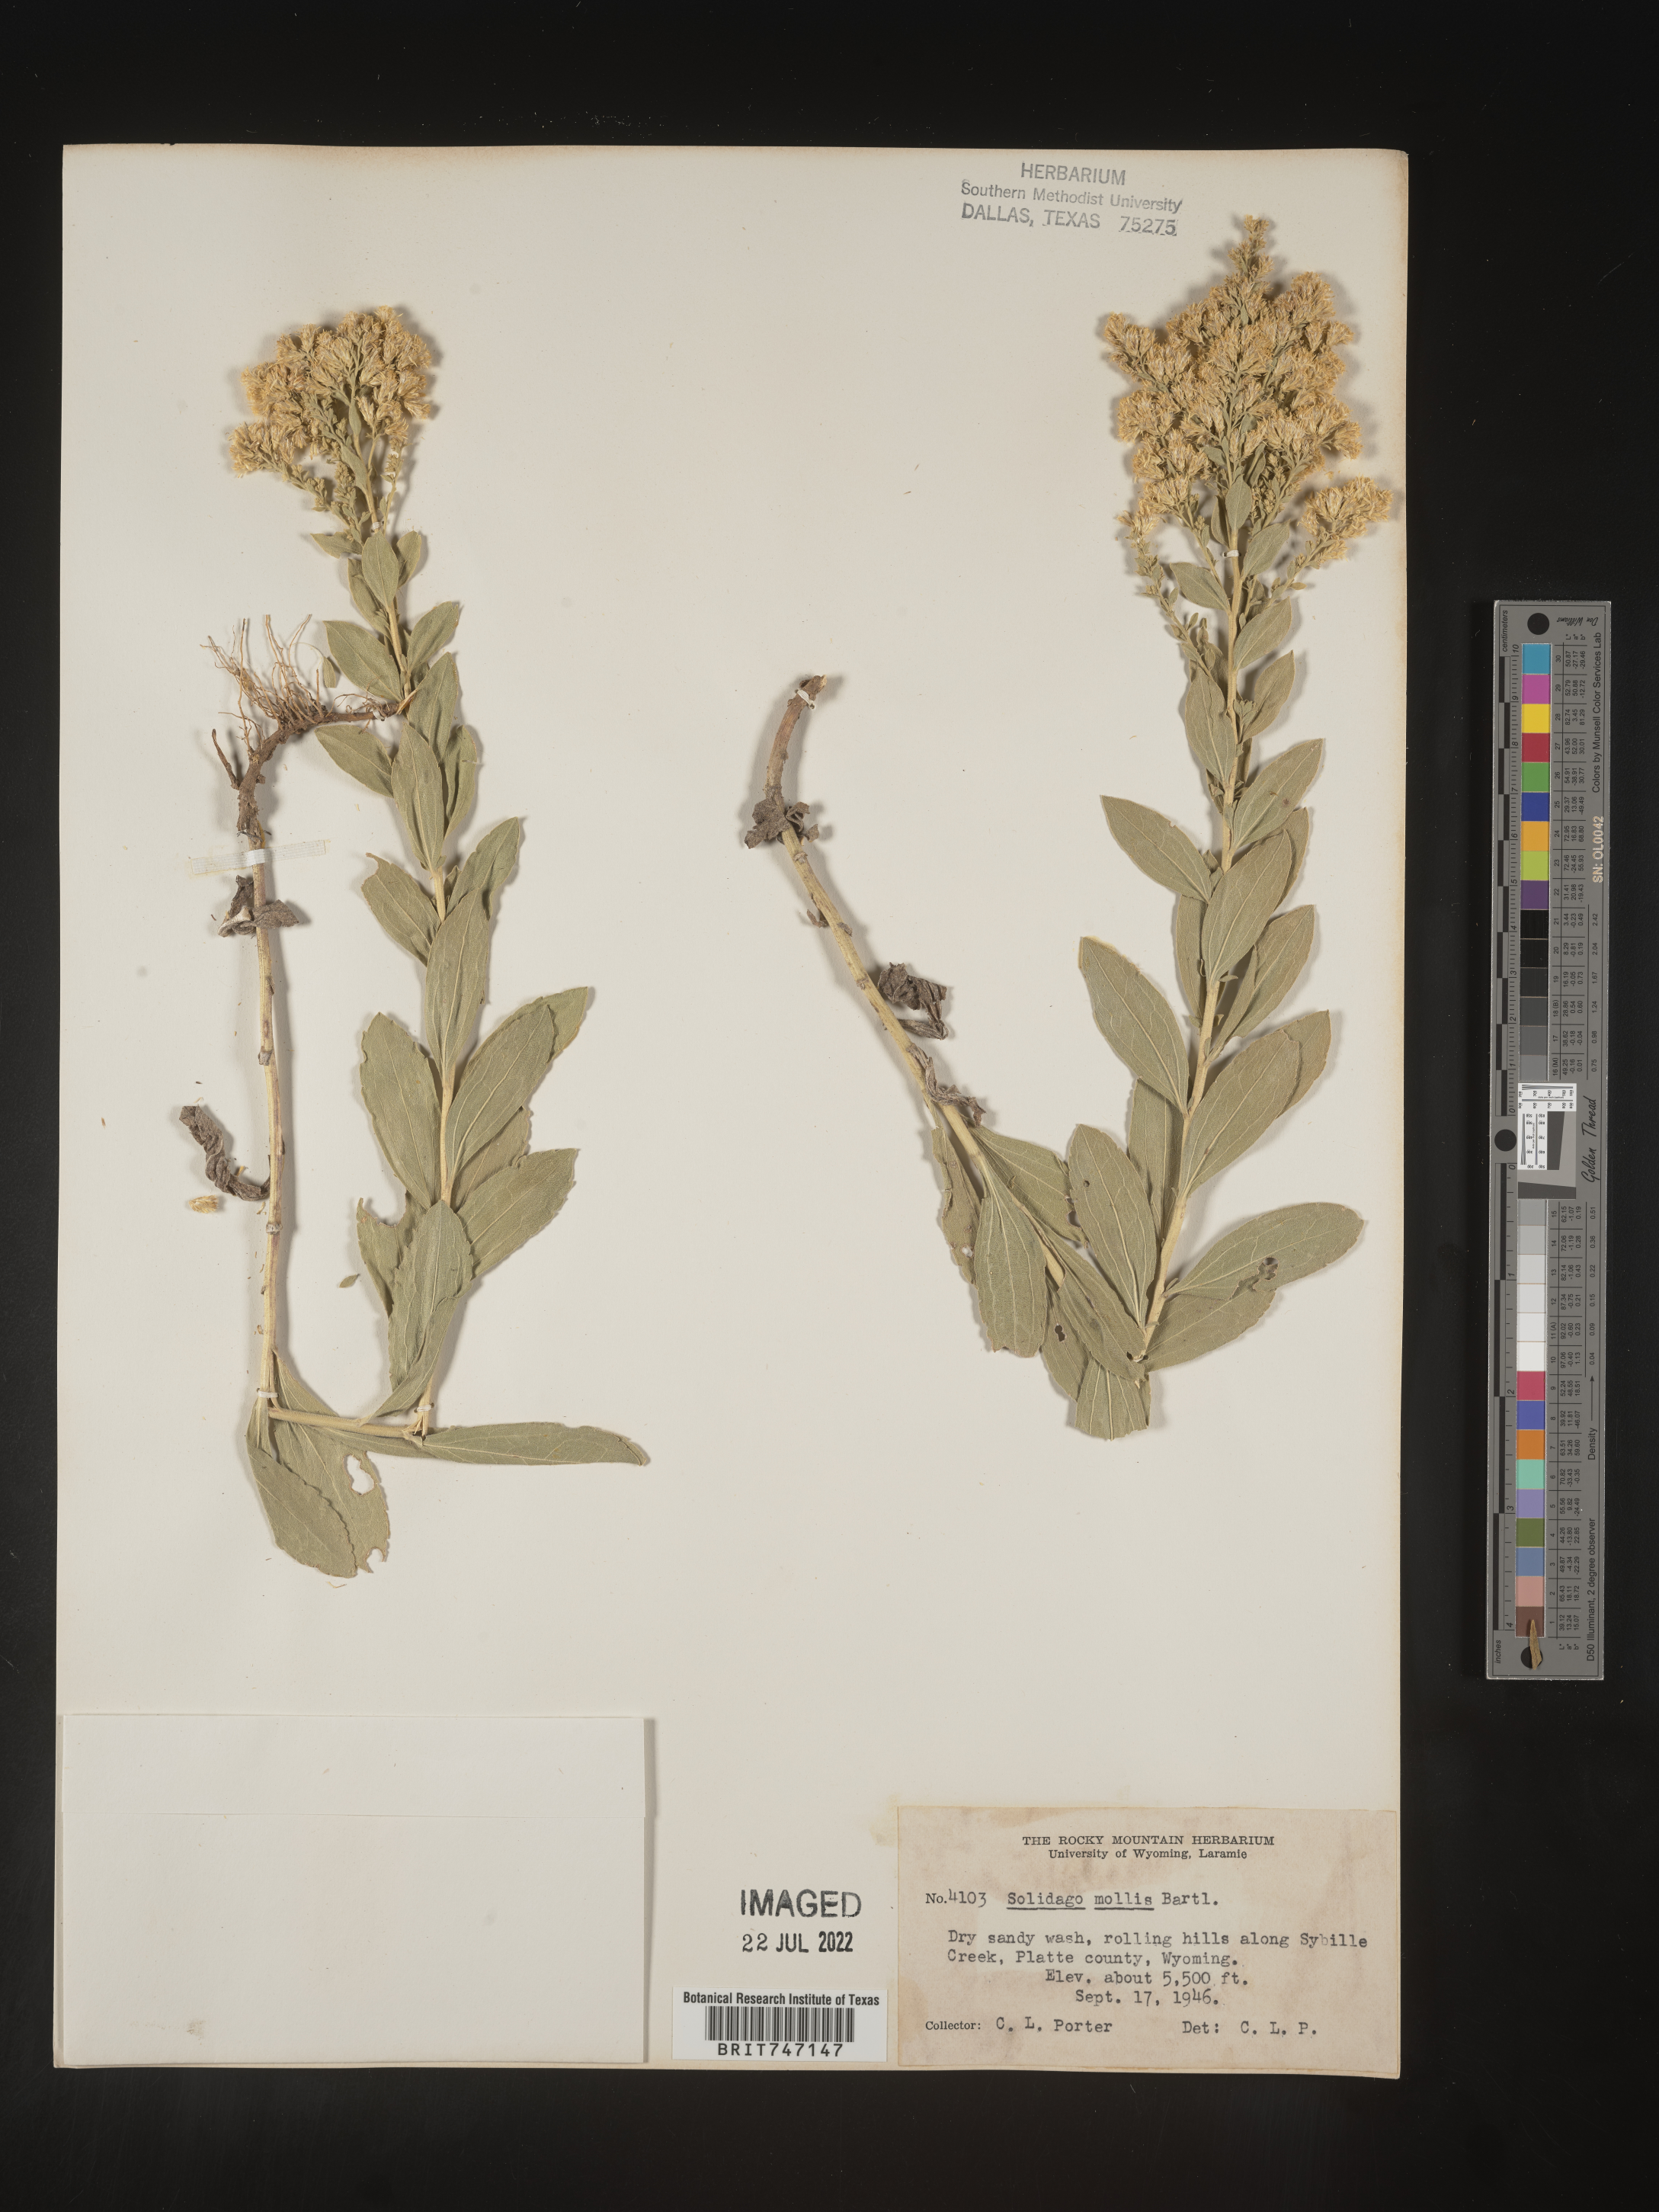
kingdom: Plantae
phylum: Tracheophyta
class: Magnoliopsida
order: Asterales
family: Asteraceae
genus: Solidago
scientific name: Solidago mollis
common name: Ashly goldenrod
